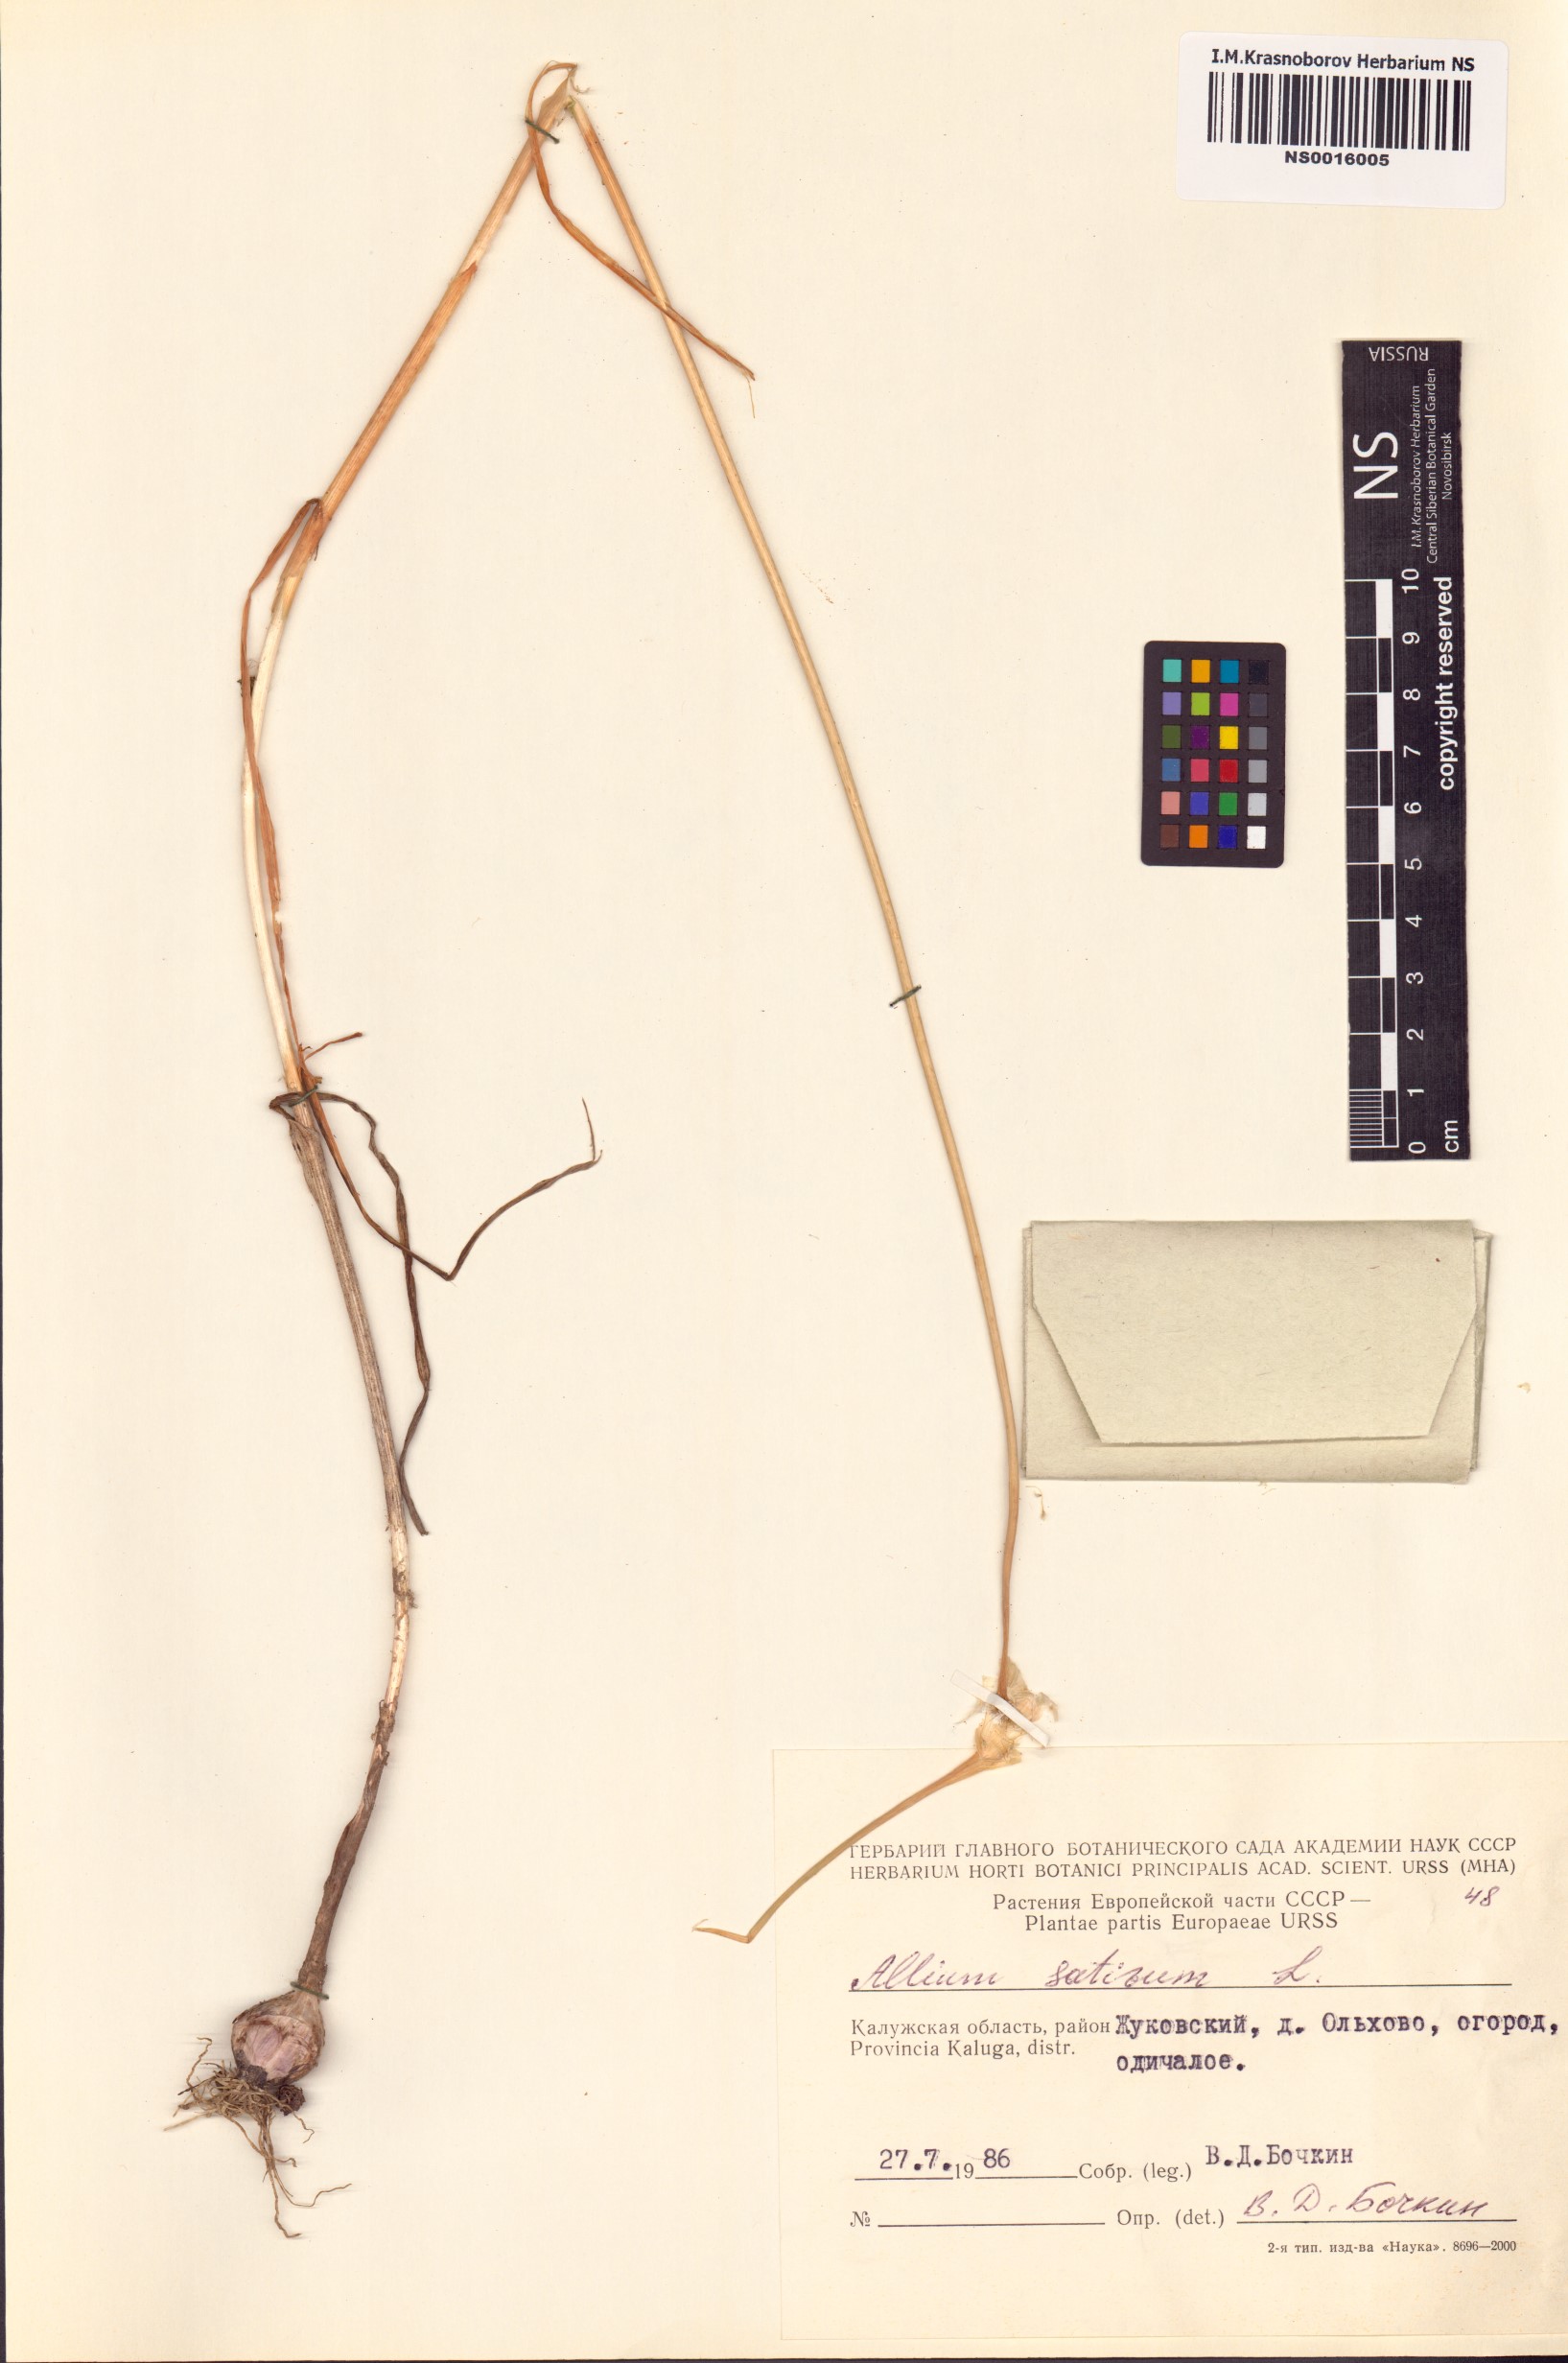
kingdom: Plantae
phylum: Tracheophyta
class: Liliopsida
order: Asparagales
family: Amaryllidaceae
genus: Allium
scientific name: Allium sativum
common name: Garlic
